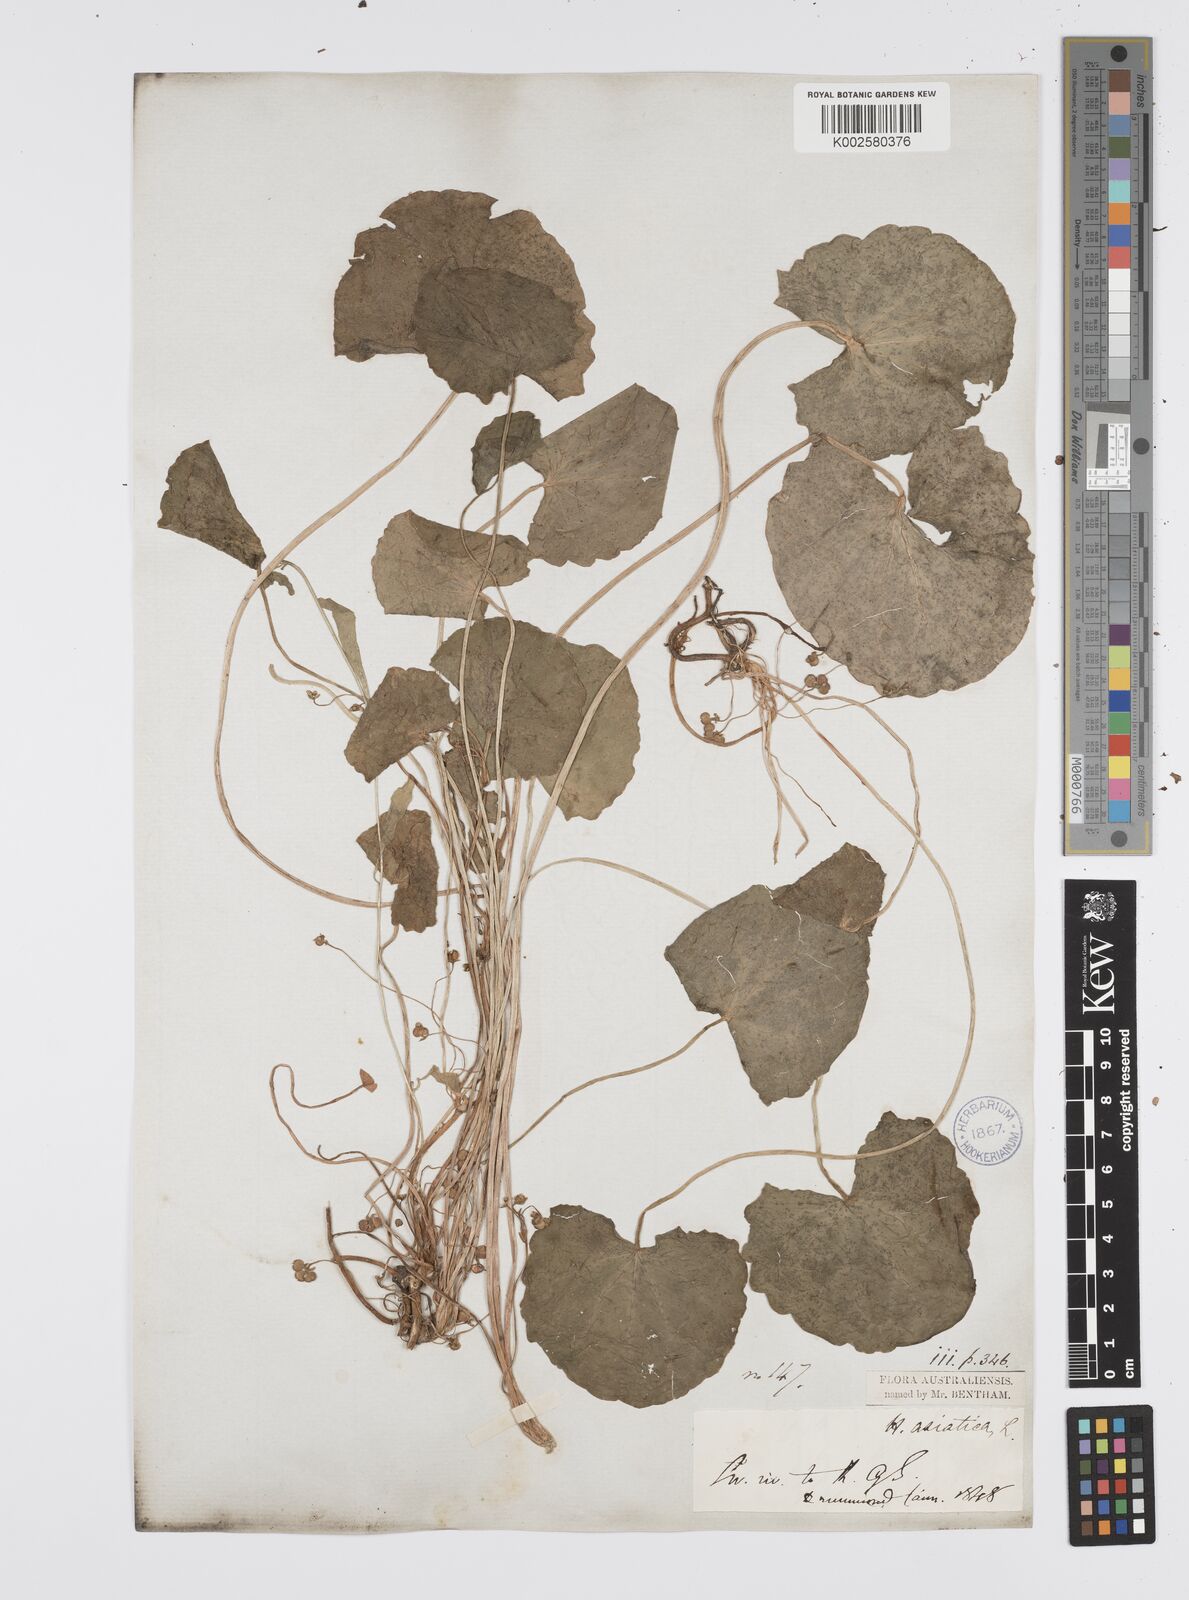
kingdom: Plantae
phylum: Tracheophyta
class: Magnoliopsida
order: Apiales
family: Apiaceae
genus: Centella
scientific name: Centella asiatica
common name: Spadeleaf
